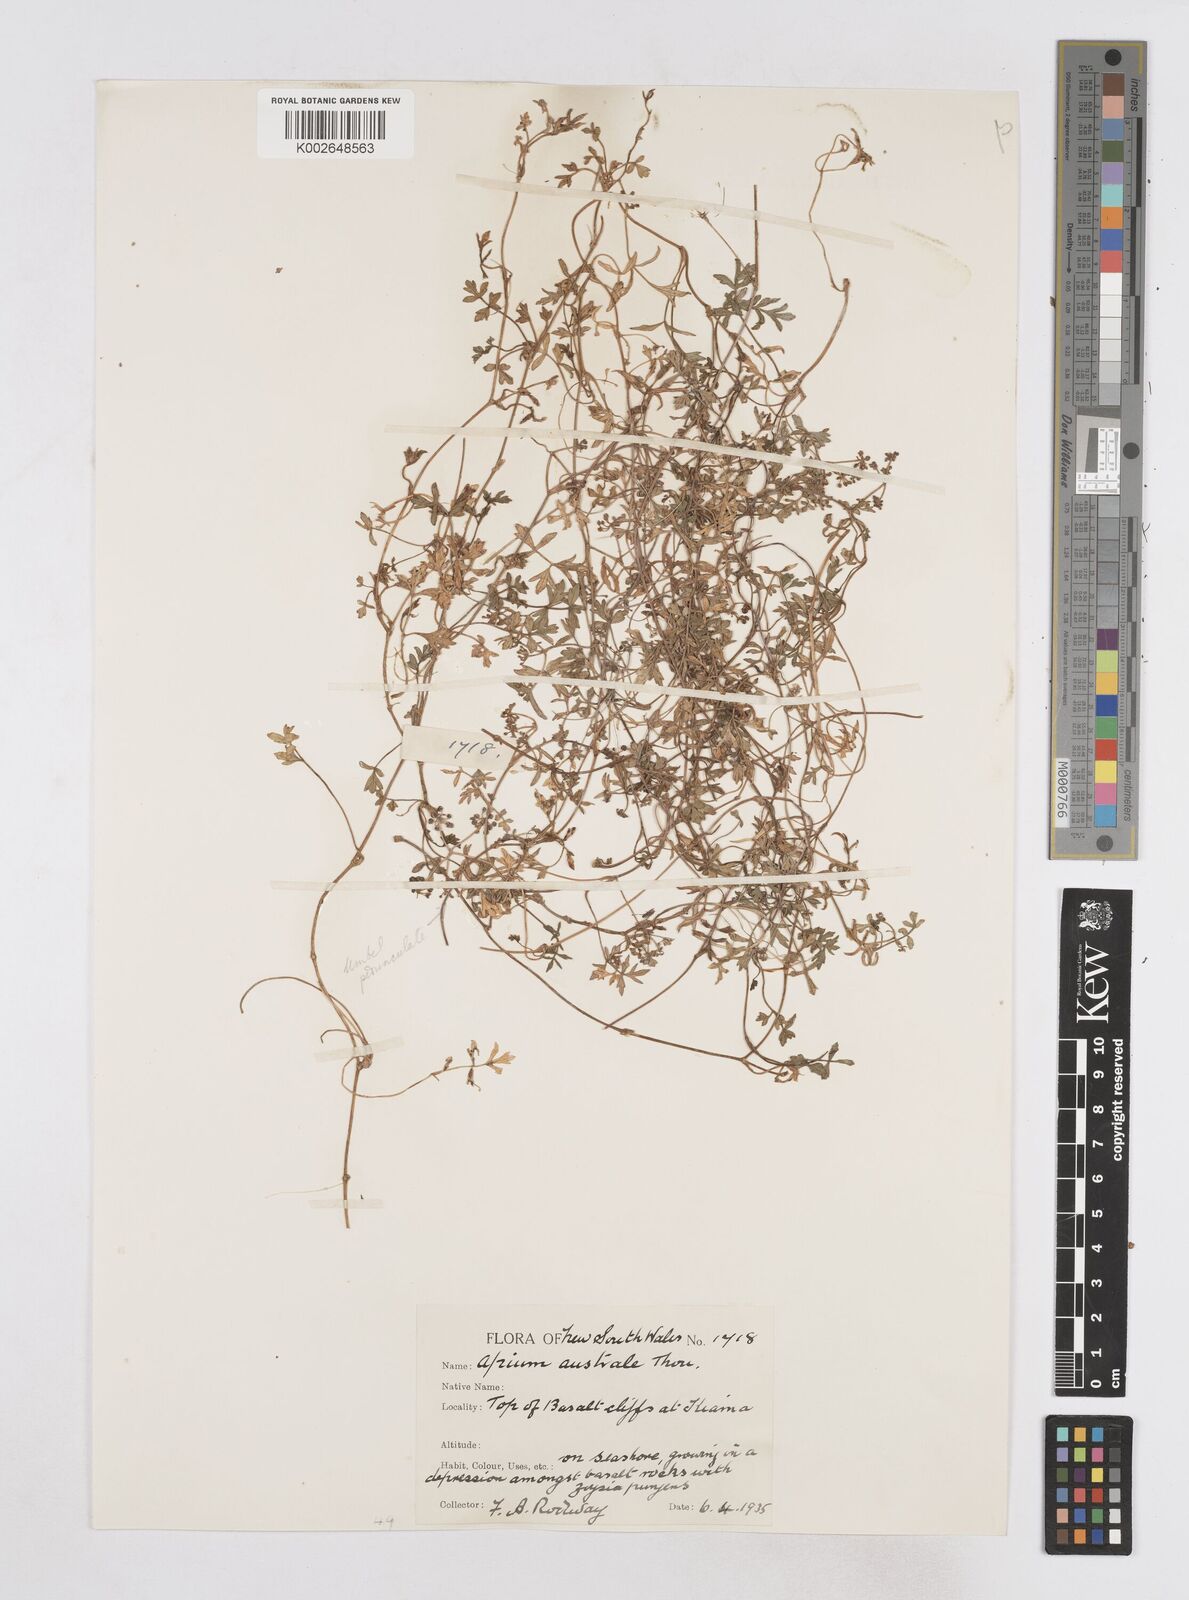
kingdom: Plantae
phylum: Tracheophyta
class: Magnoliopsida
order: Apiales
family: Apiaceae
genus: Apium
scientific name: Apium prostratum
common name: Prostrate marshwort
